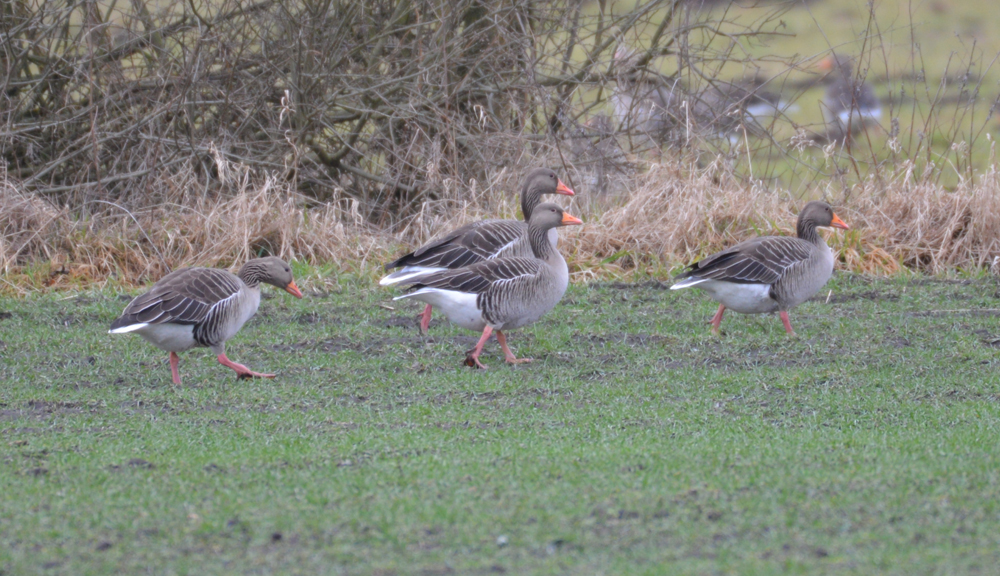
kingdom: Animalia
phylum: Chordata
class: Aves
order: Anseriformes
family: Anatidae
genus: Anser
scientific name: Anser anser
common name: Greylag goose
